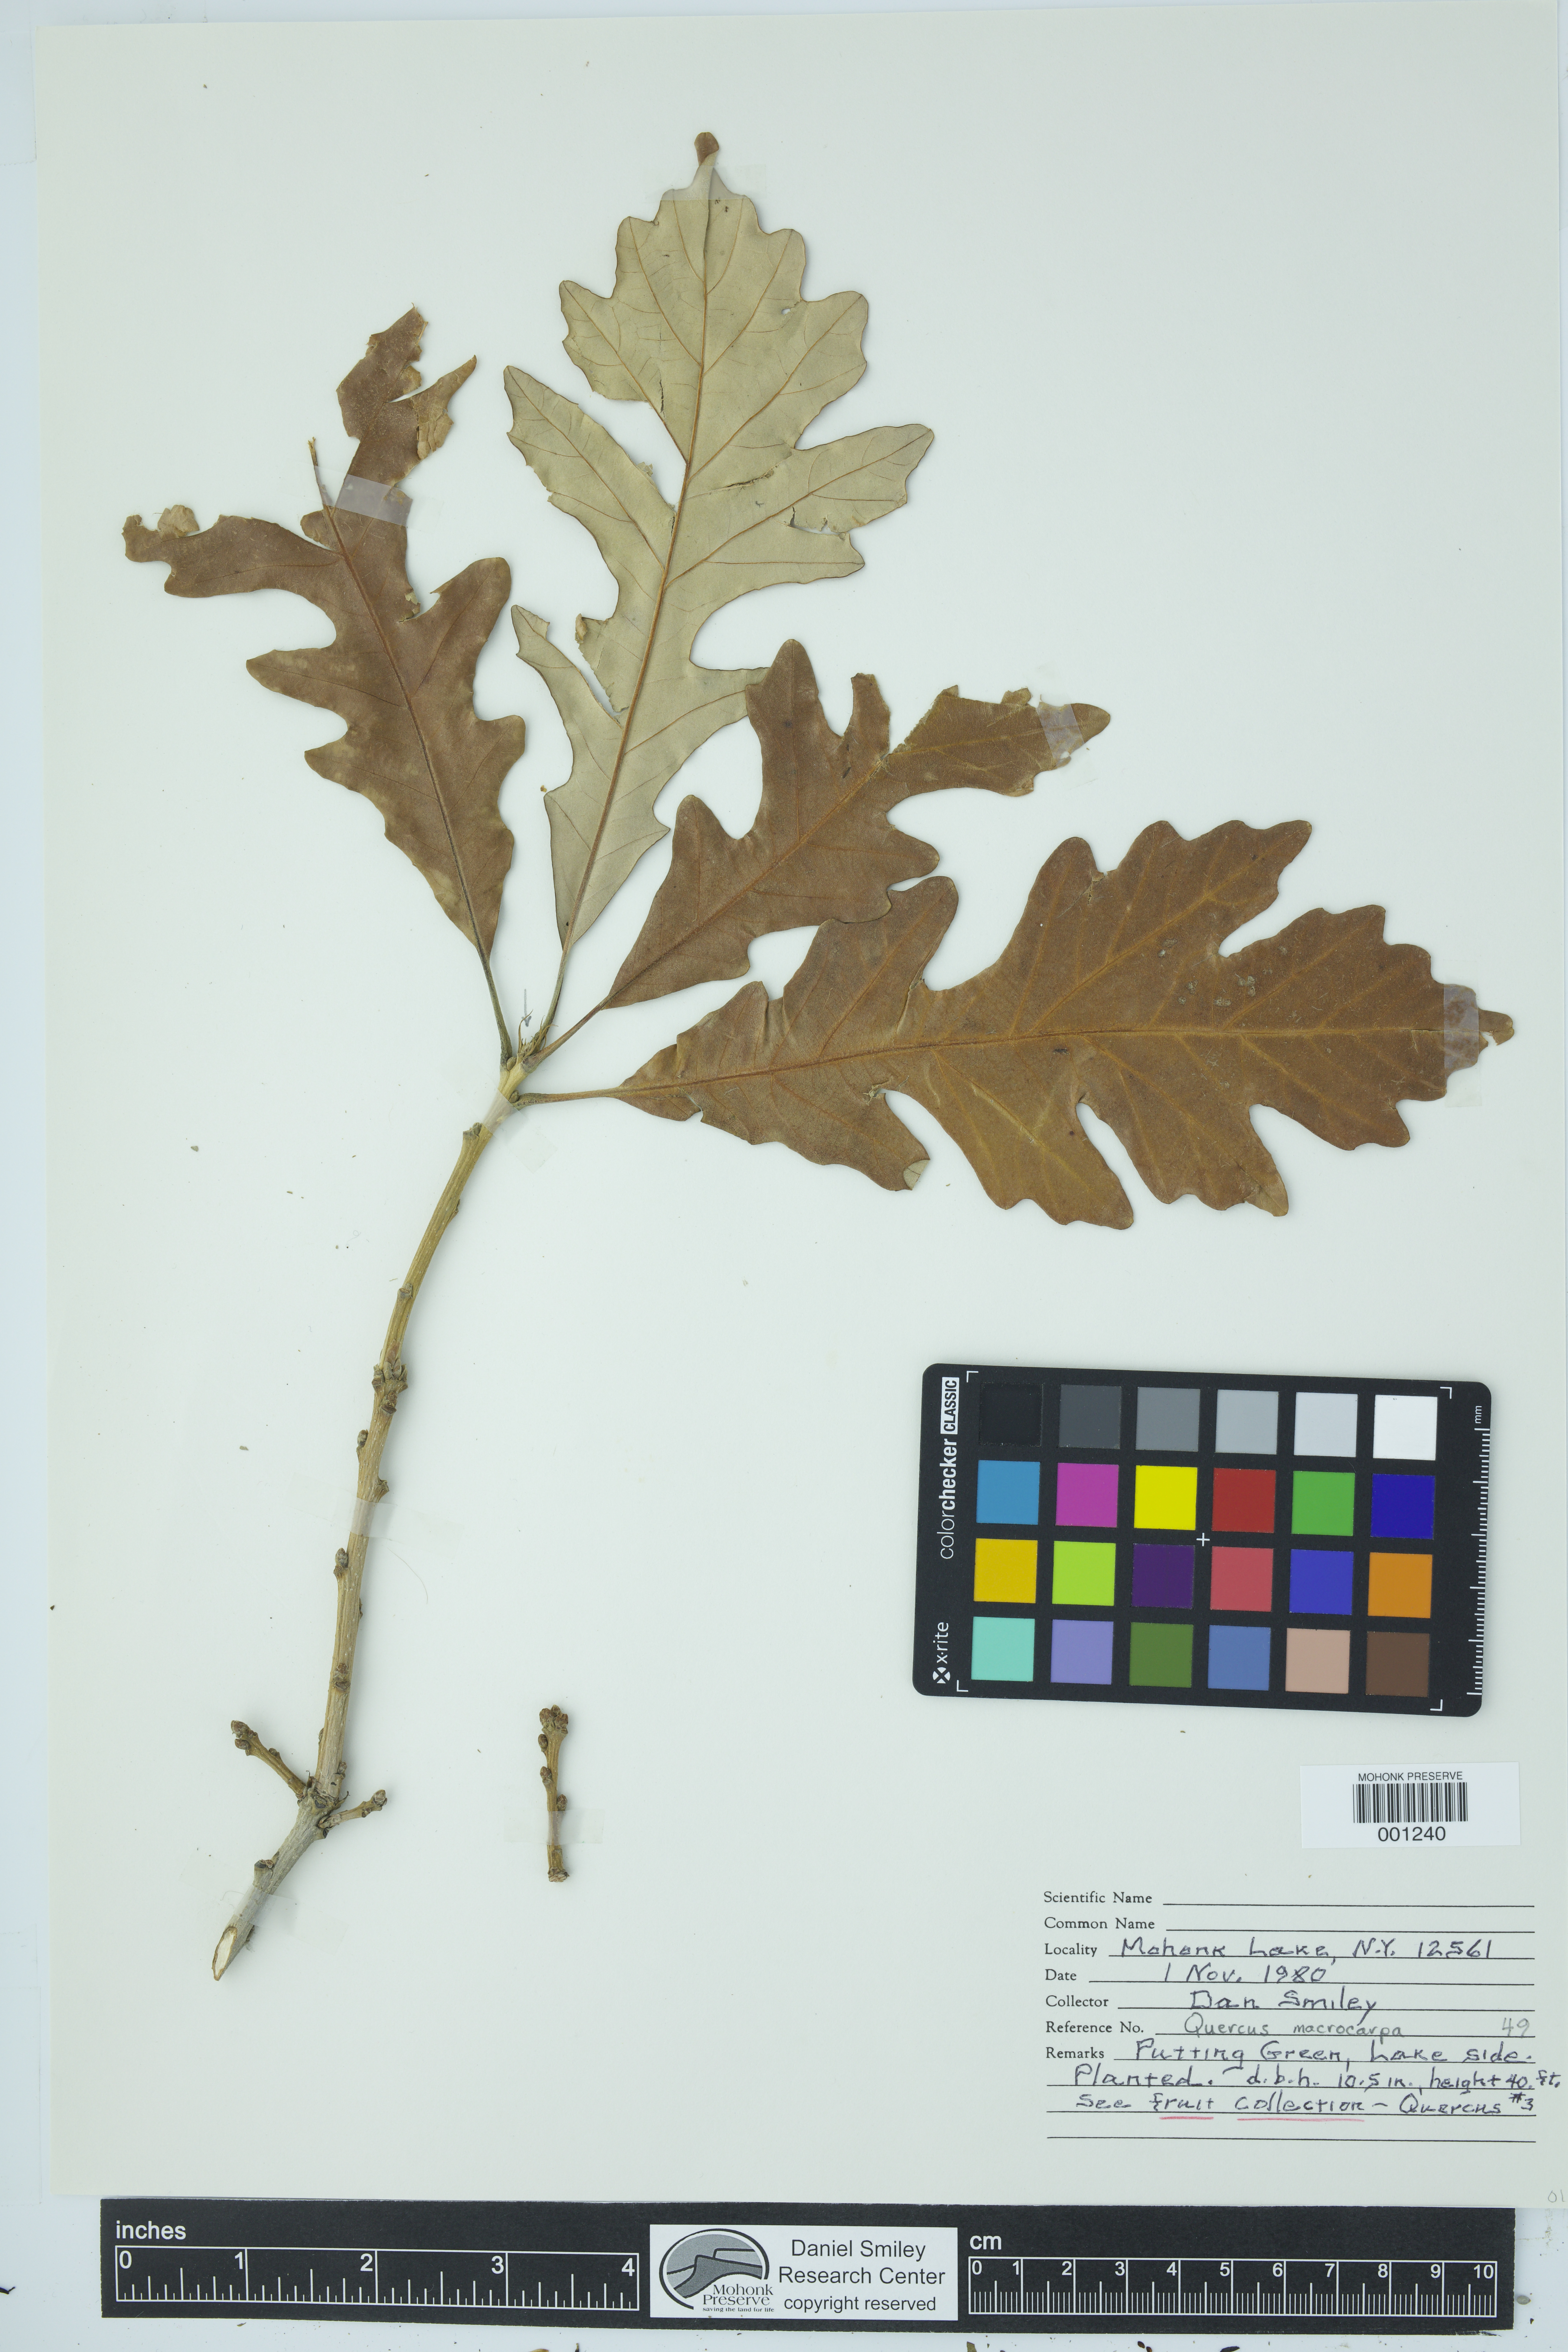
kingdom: Plantae
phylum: Tracheophyta
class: Magnoliopsida
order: Fagales
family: Fagaceae
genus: Quercus
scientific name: Quercus macrocarpa
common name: Bur oak
